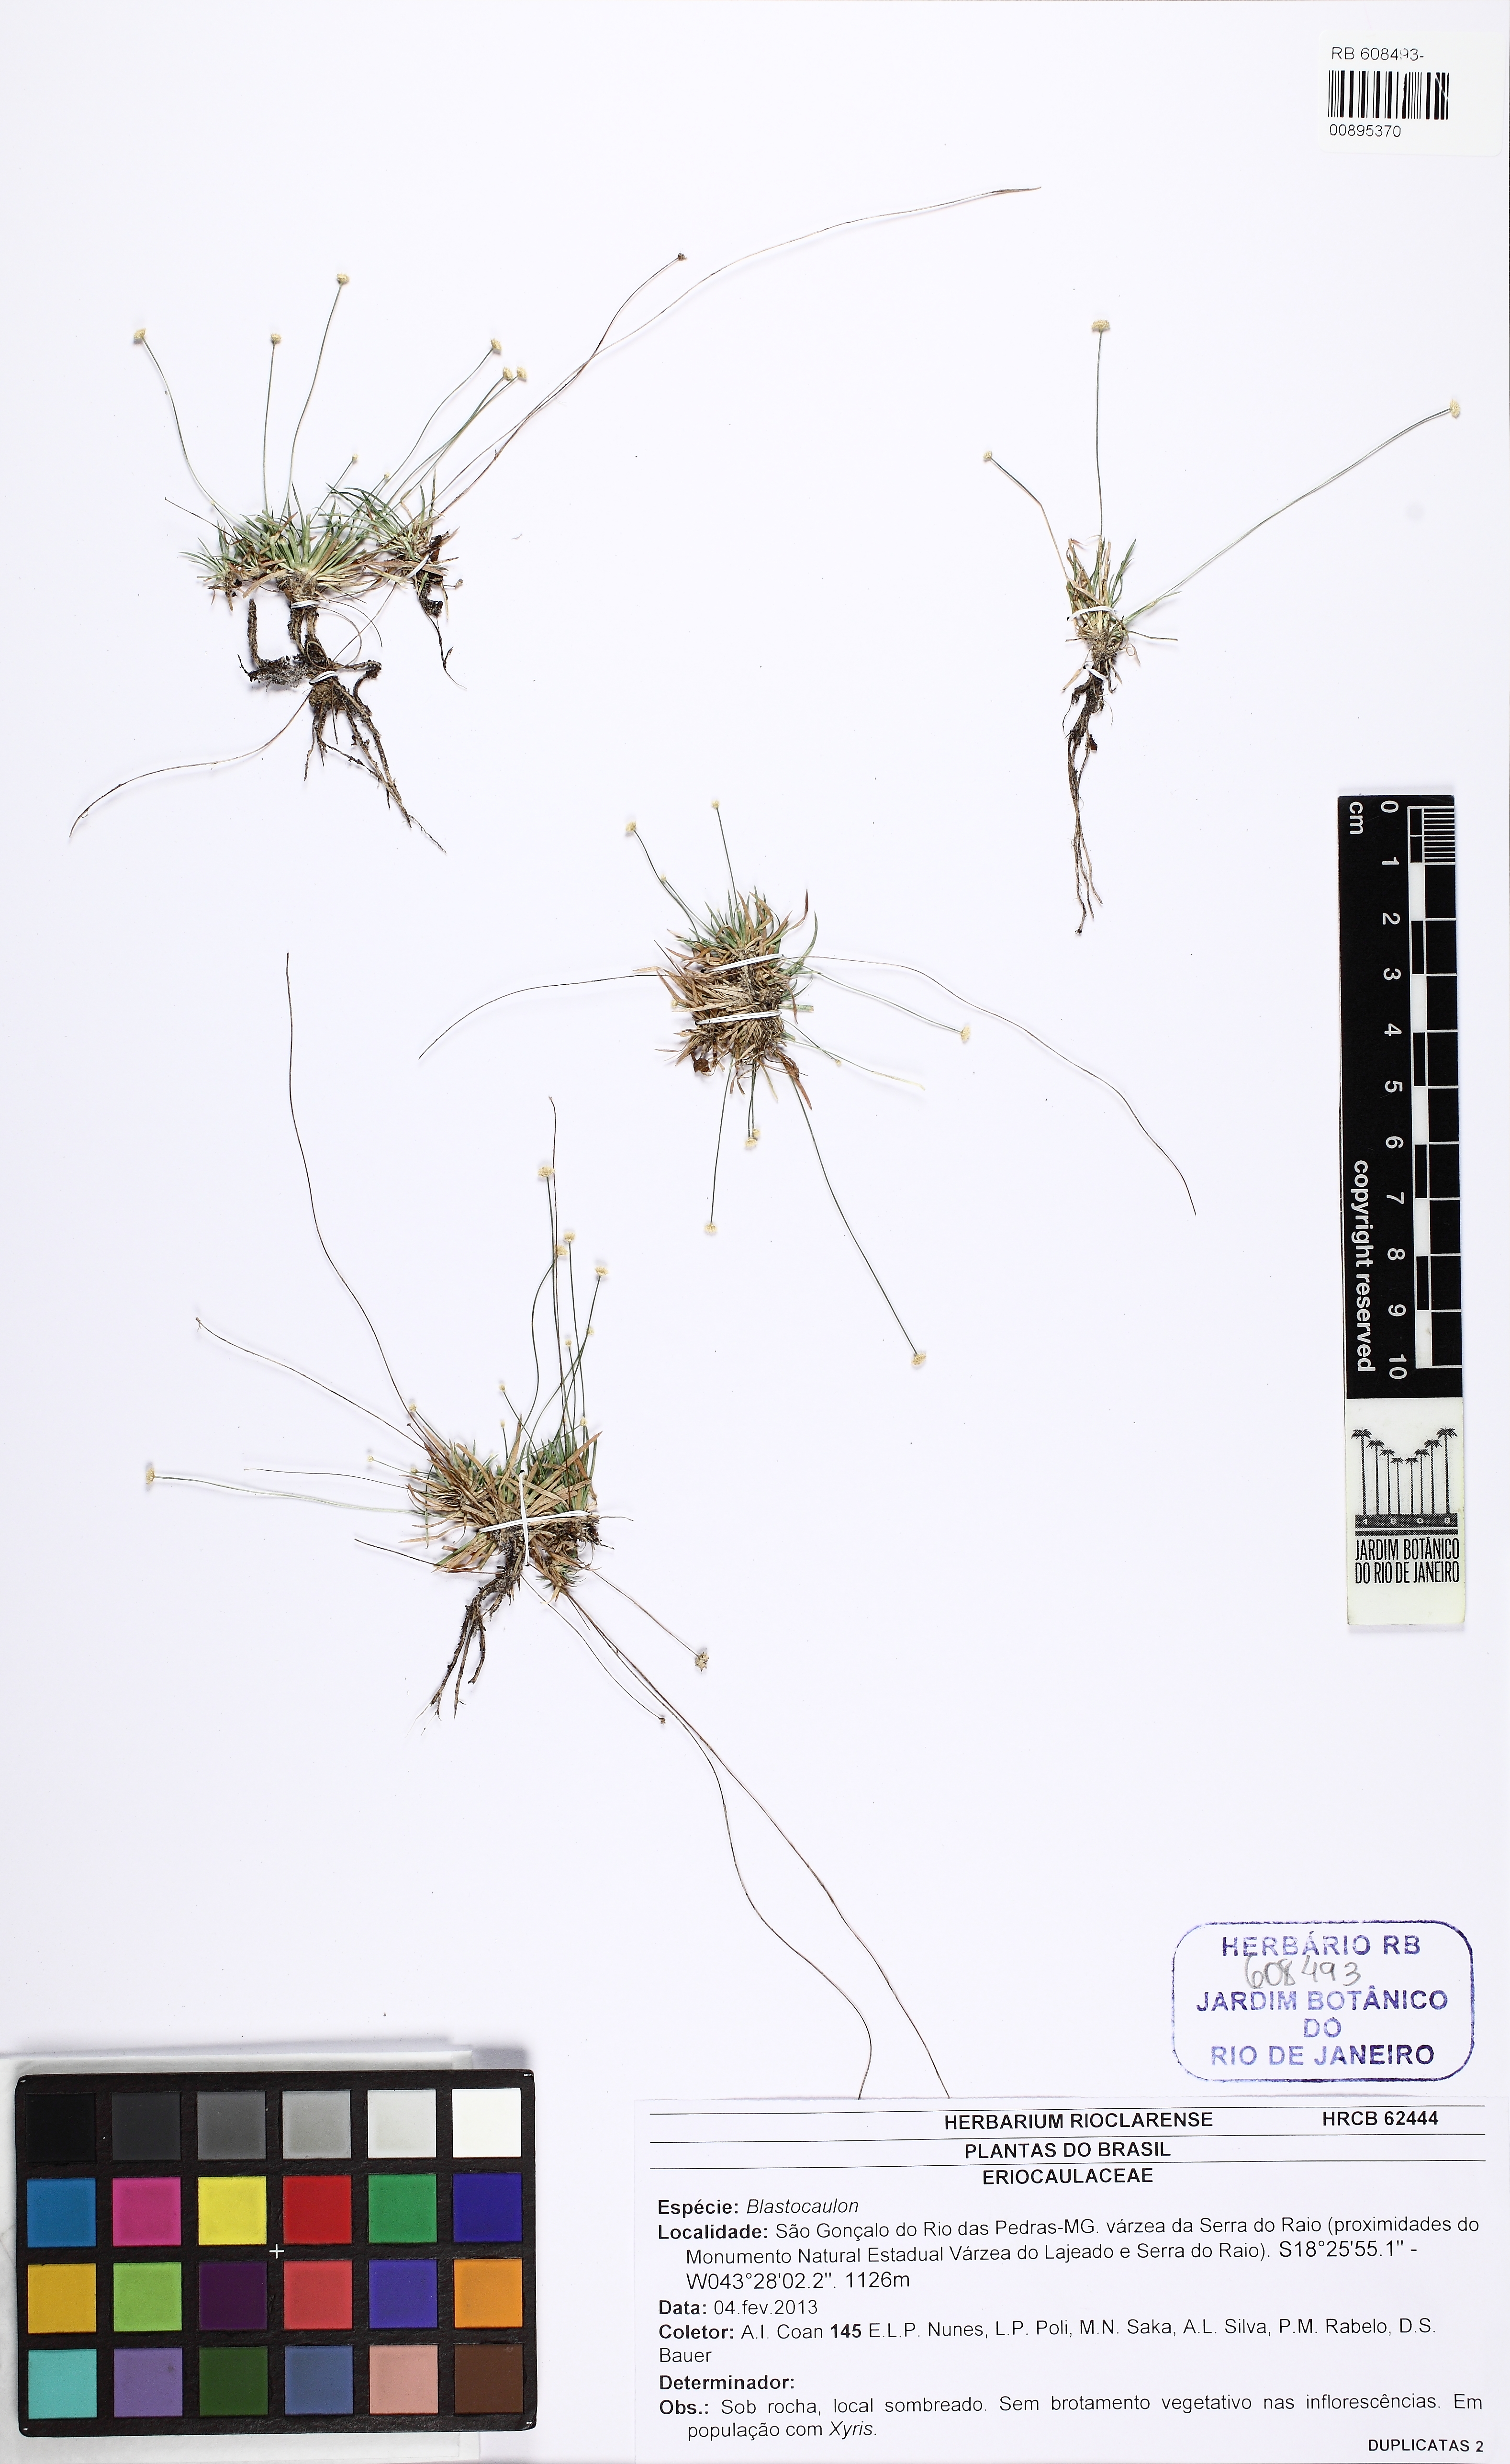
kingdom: Plantae
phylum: Tracheophyta
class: Liliopsida
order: Poales
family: Eriocaulaceae
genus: Leiothrix
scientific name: Leiothrix
